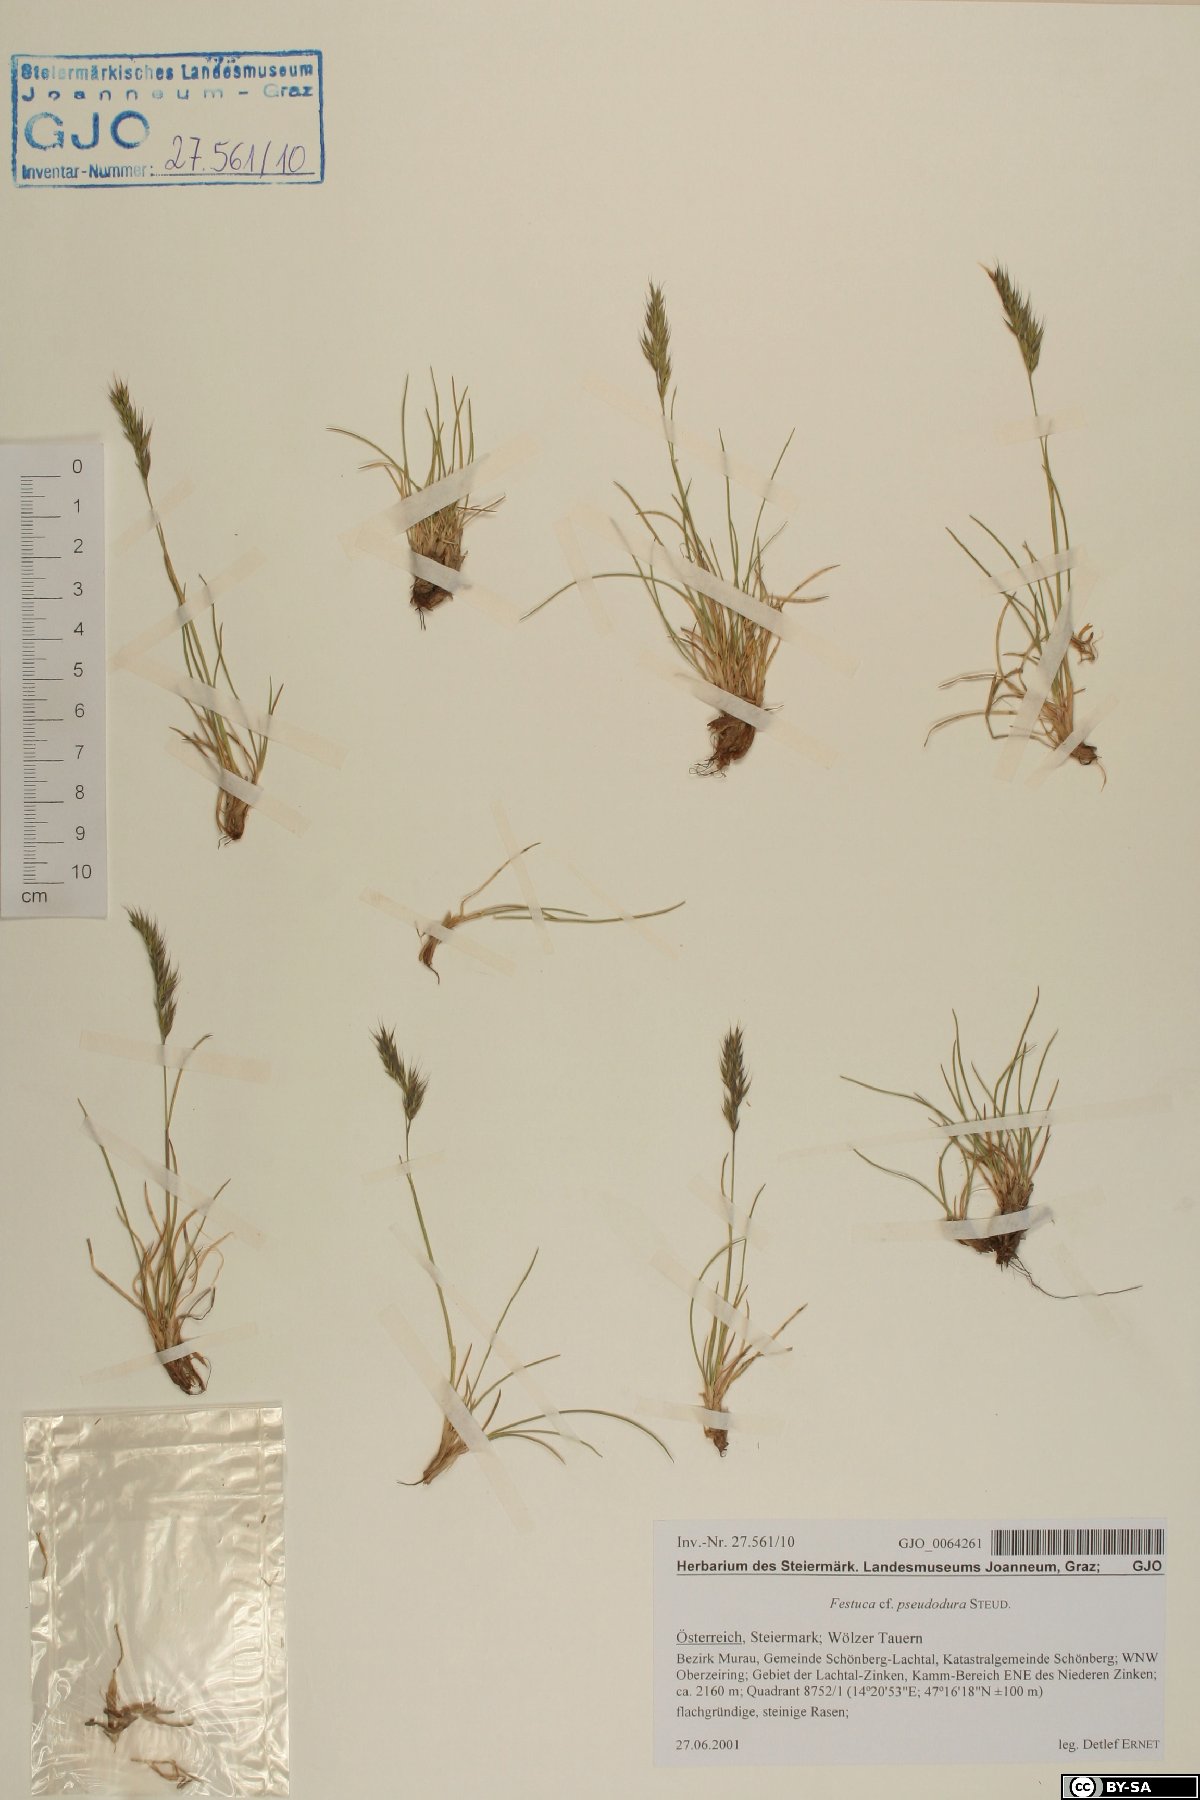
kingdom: Plantae
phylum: Tracheophyta
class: Liliopsida
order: Poales
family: Poaceae
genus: Festuca
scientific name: Festuca pseudodura
